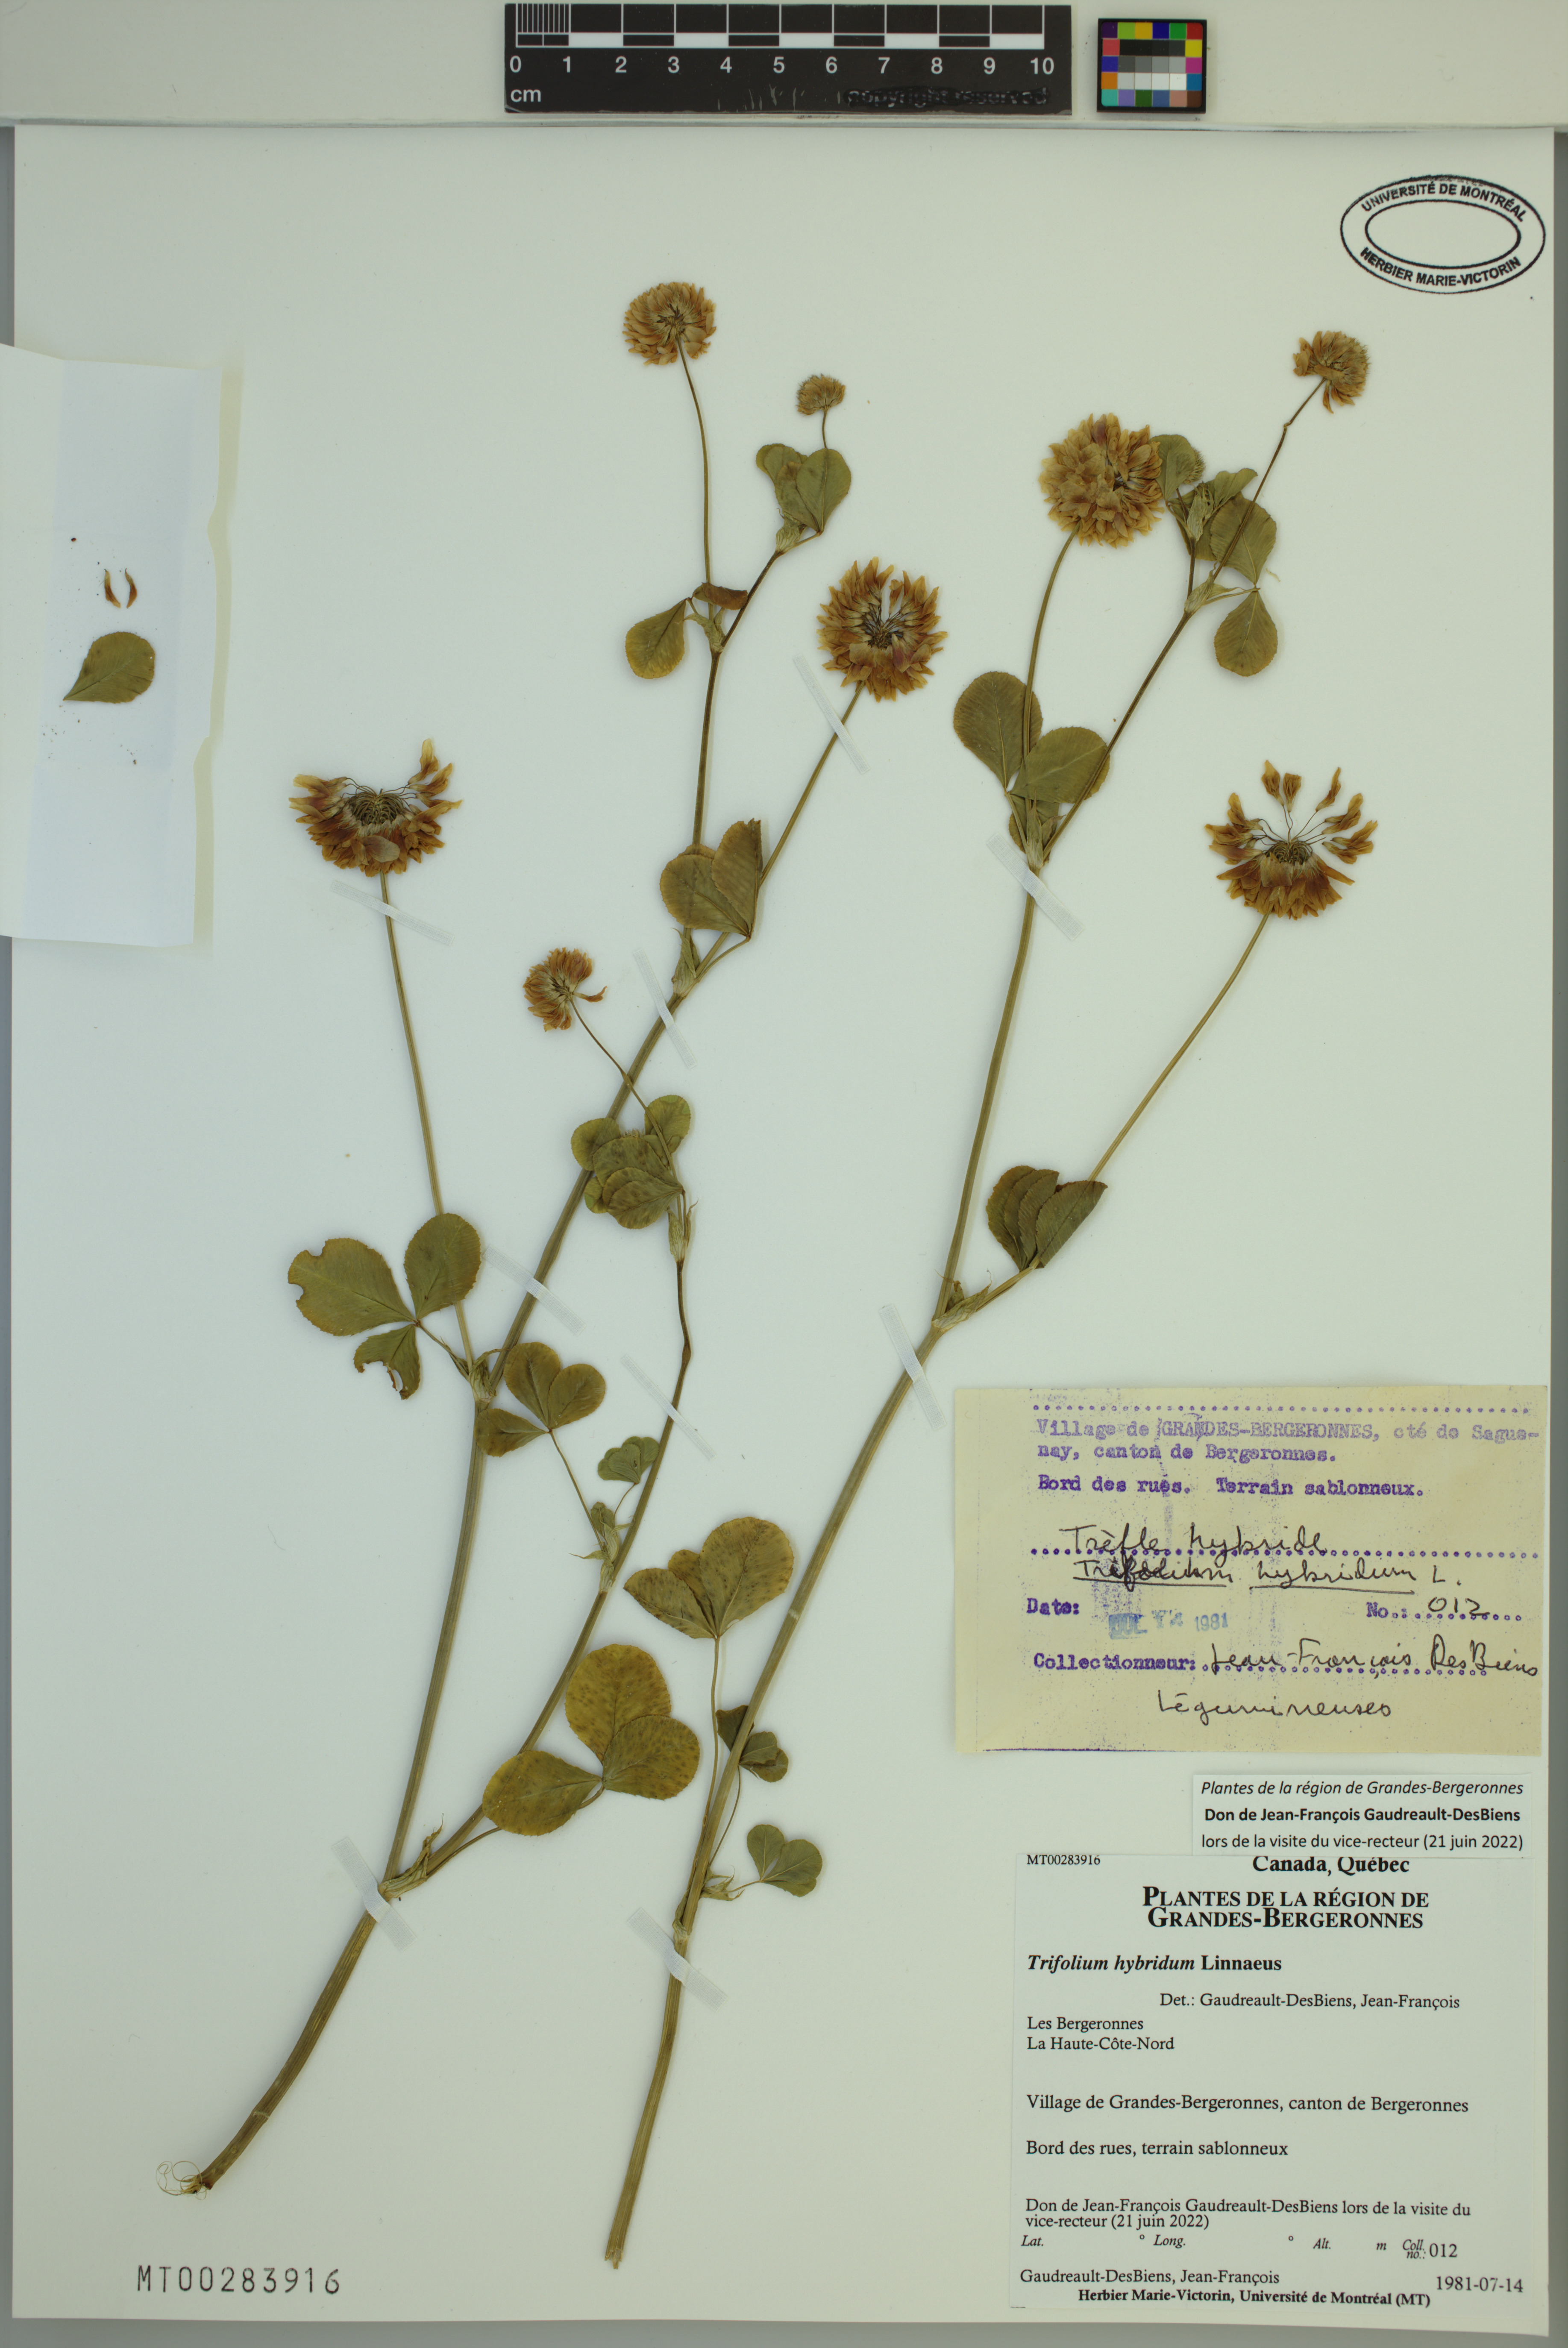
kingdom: Plantae
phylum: Tracheophyta
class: Magnoliopsida
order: Fabales
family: Fabaceae
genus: Trifolium
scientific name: Trifolium hybridum
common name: Alsike clover
